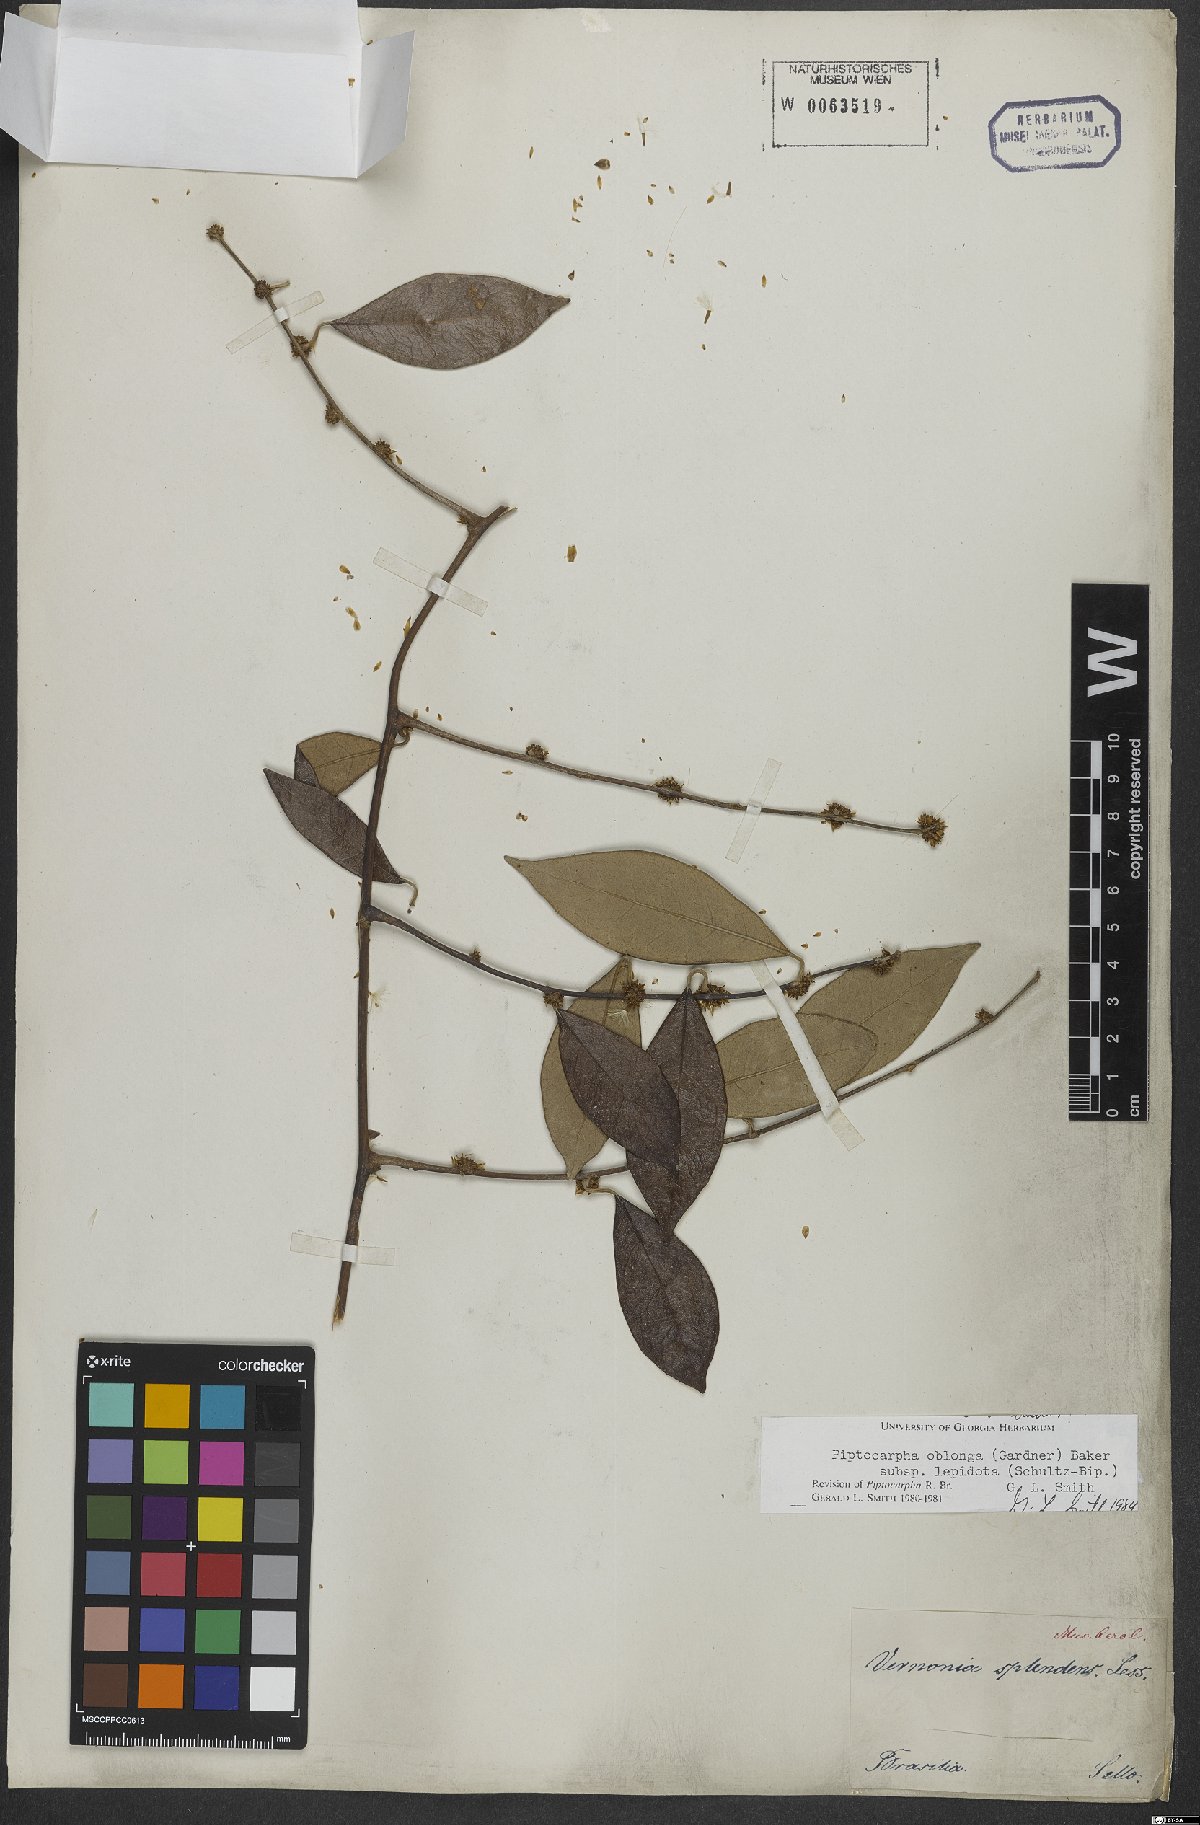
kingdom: Plantae
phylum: Tracheophyta
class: Magnoliopsida
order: Asterales
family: Asteraceae
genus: Piptocarpha
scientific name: Piptocarpha oblonga
